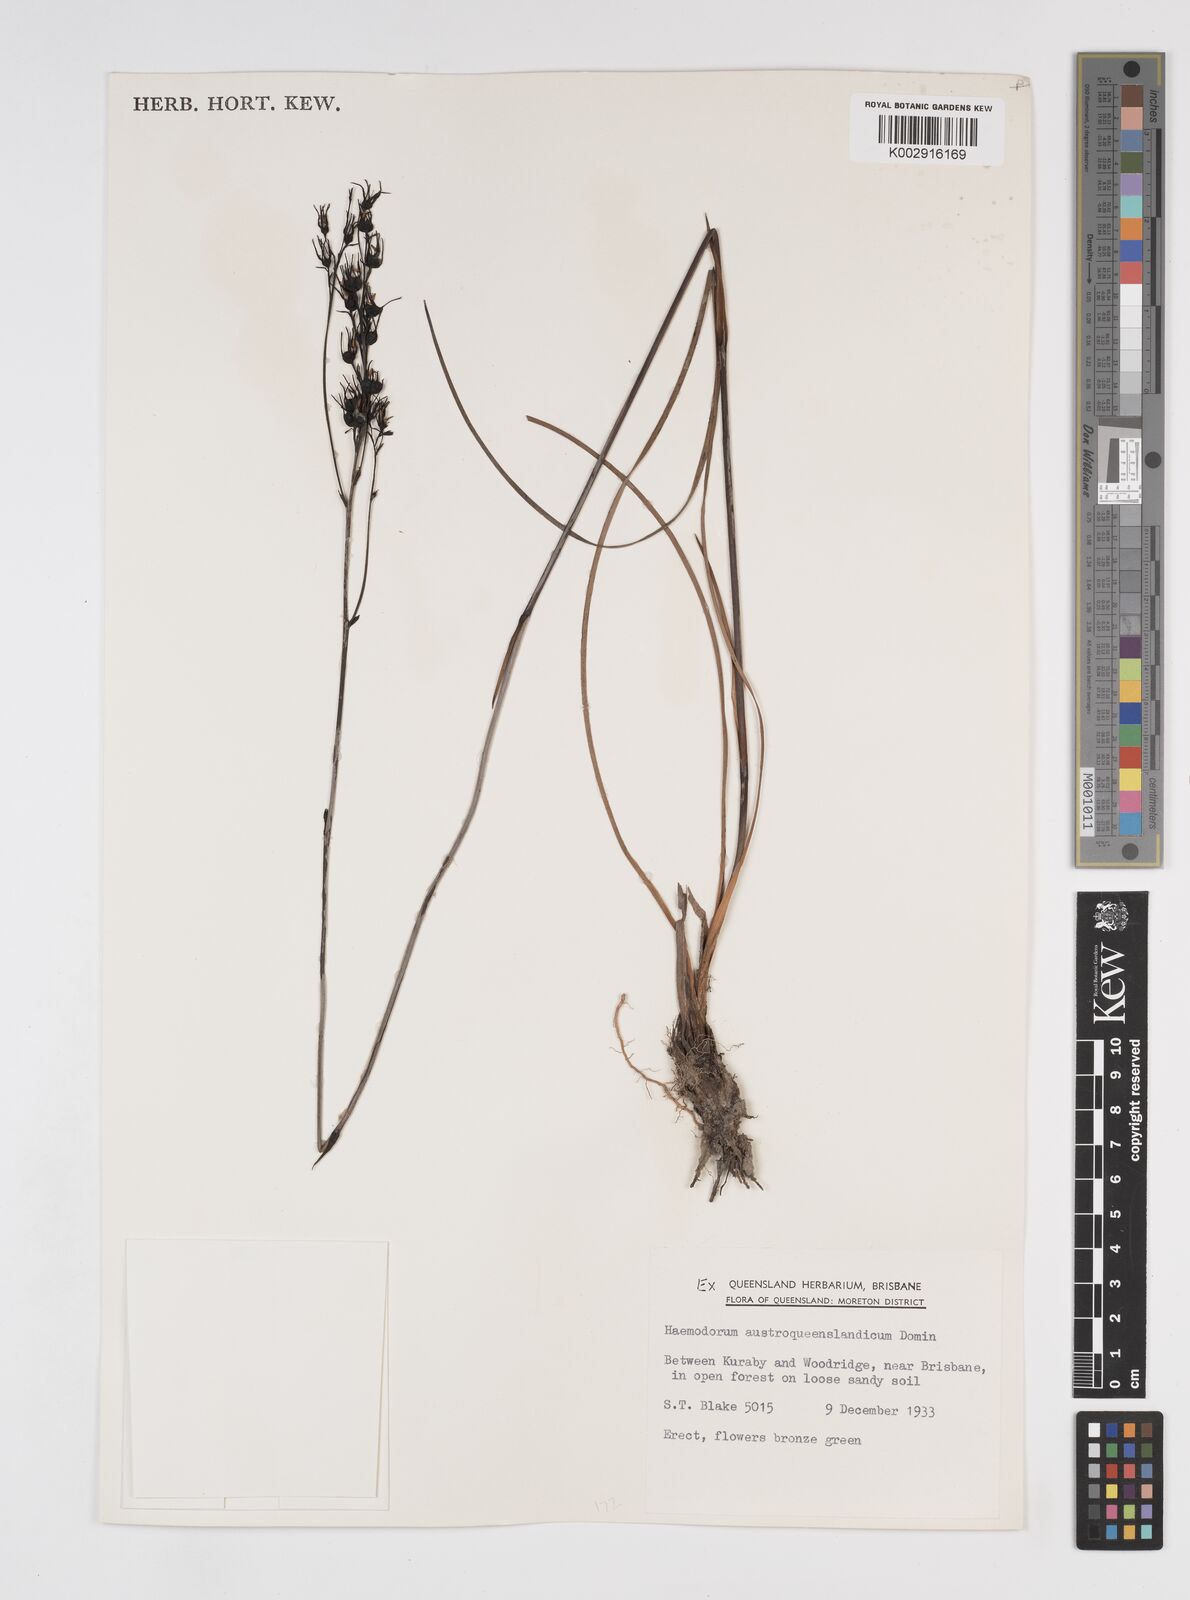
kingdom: Plantae
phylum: Tracheophyta
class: Liliopsida
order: Commelinales
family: Haemodoraceae
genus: Haemodorum
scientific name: Haemodorum austroqueenslandicum
